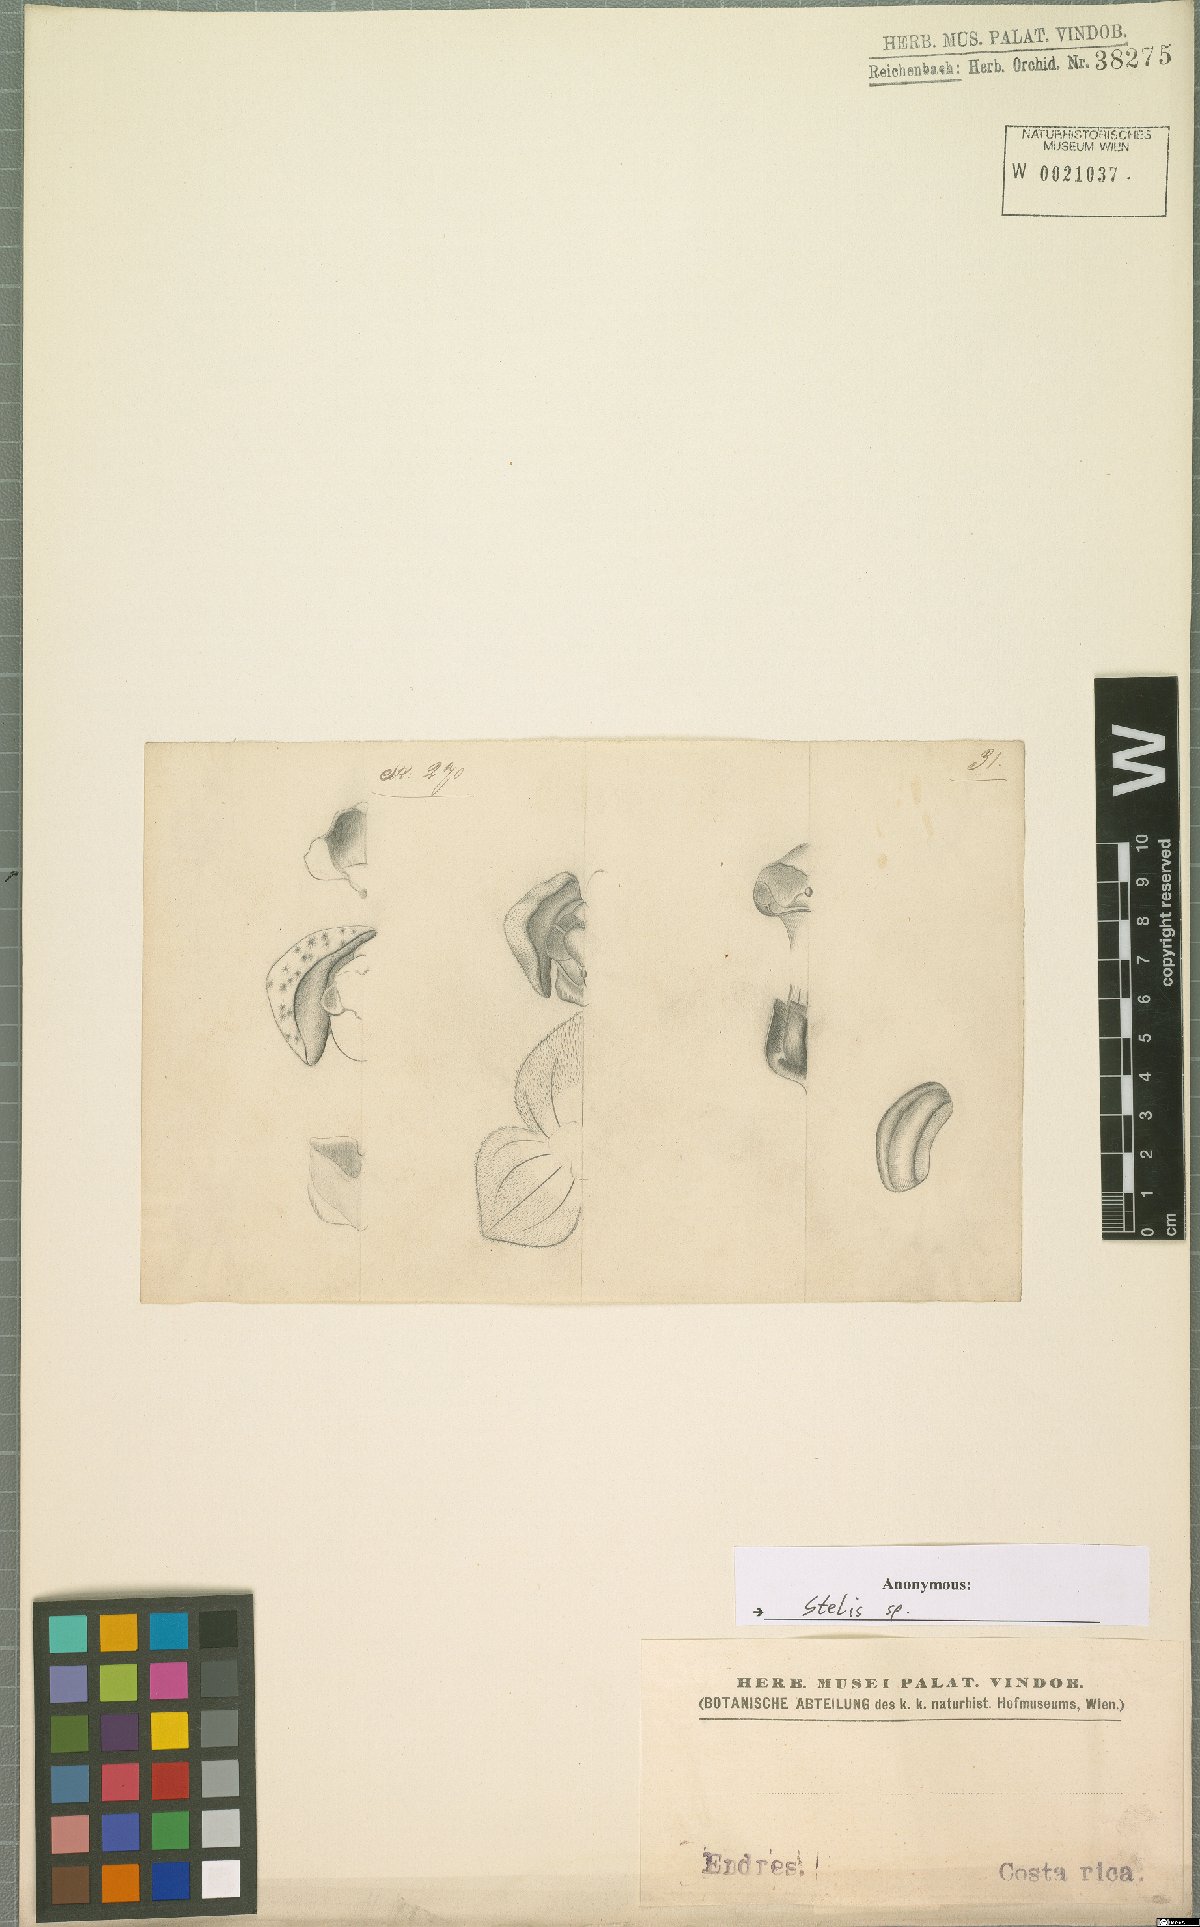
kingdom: Plantae
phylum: Tracheophyta
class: Liliopsida
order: Asparagales
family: Orchidaceae
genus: Stelis
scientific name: Stelis
